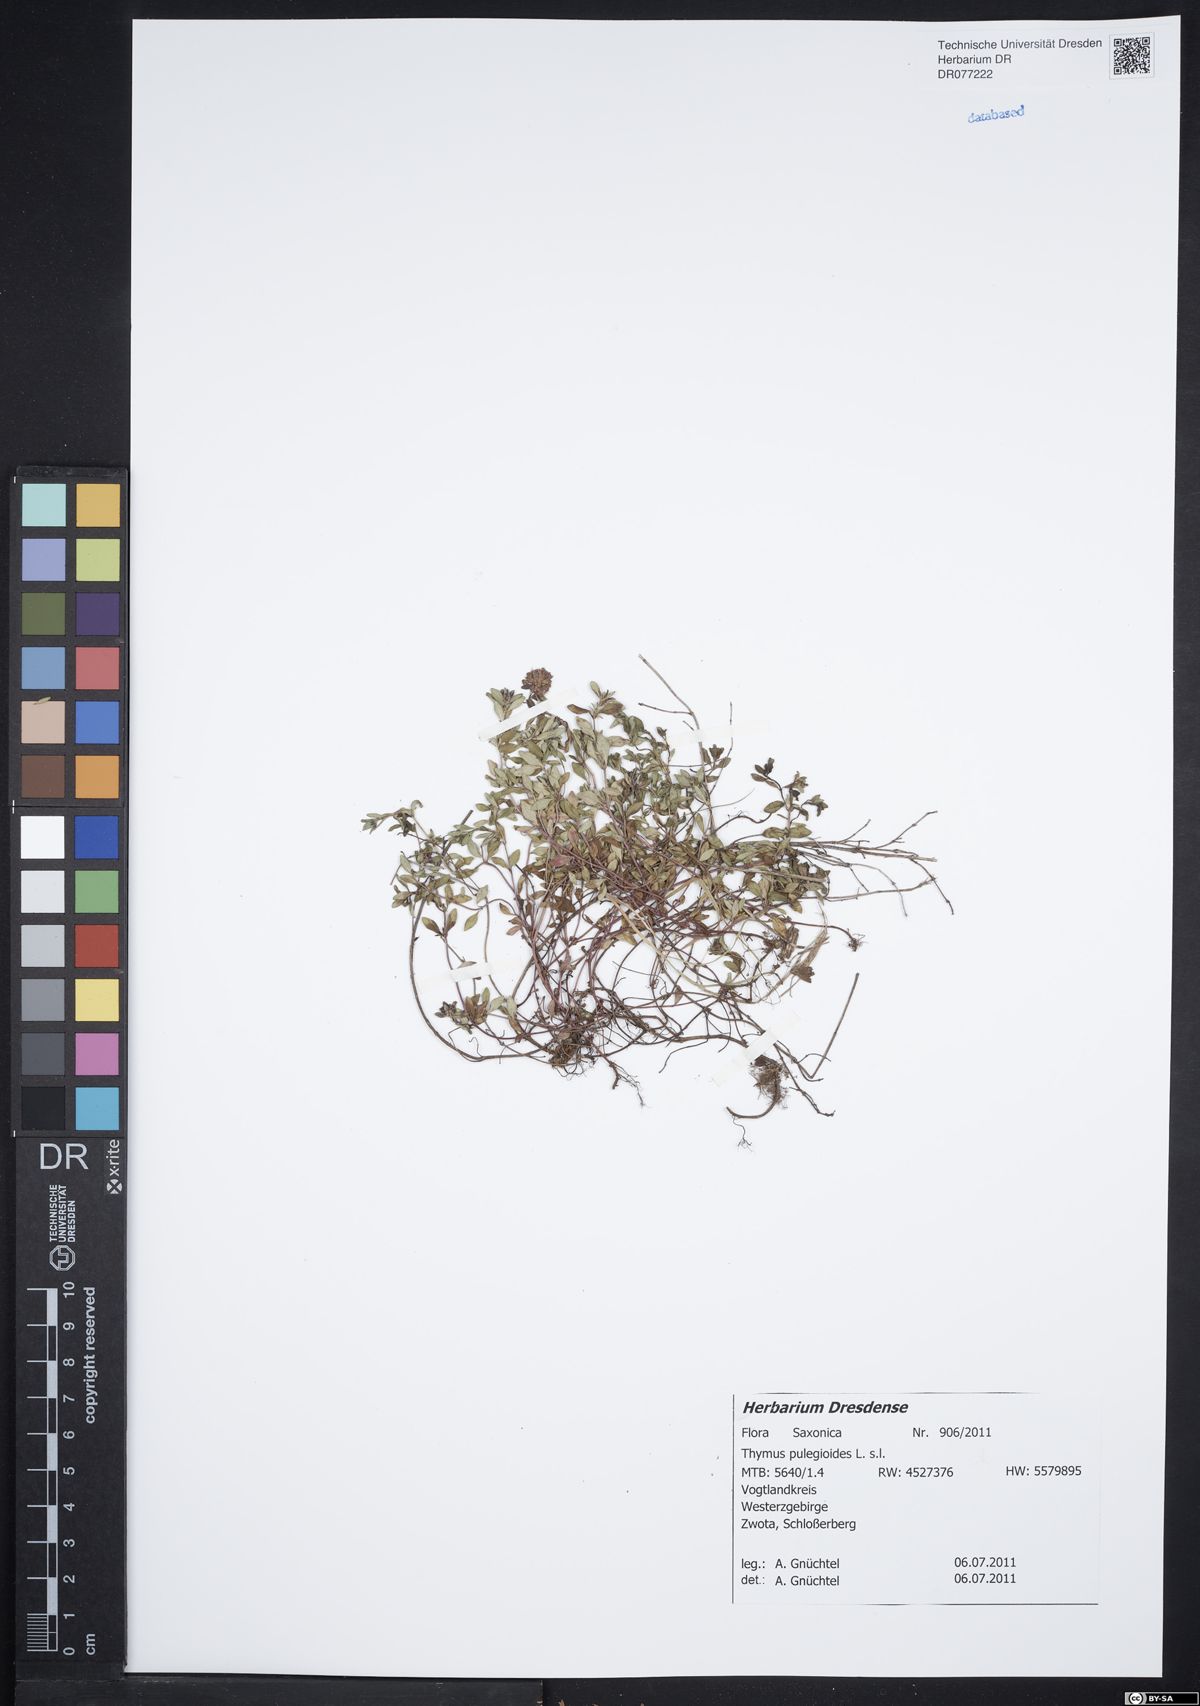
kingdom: Plantae
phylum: Tracheophyta
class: Magnoliopsida
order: Lamiales
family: Lamiaceae
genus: Thymus
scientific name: Thymus pulegioides
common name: Large thyme
